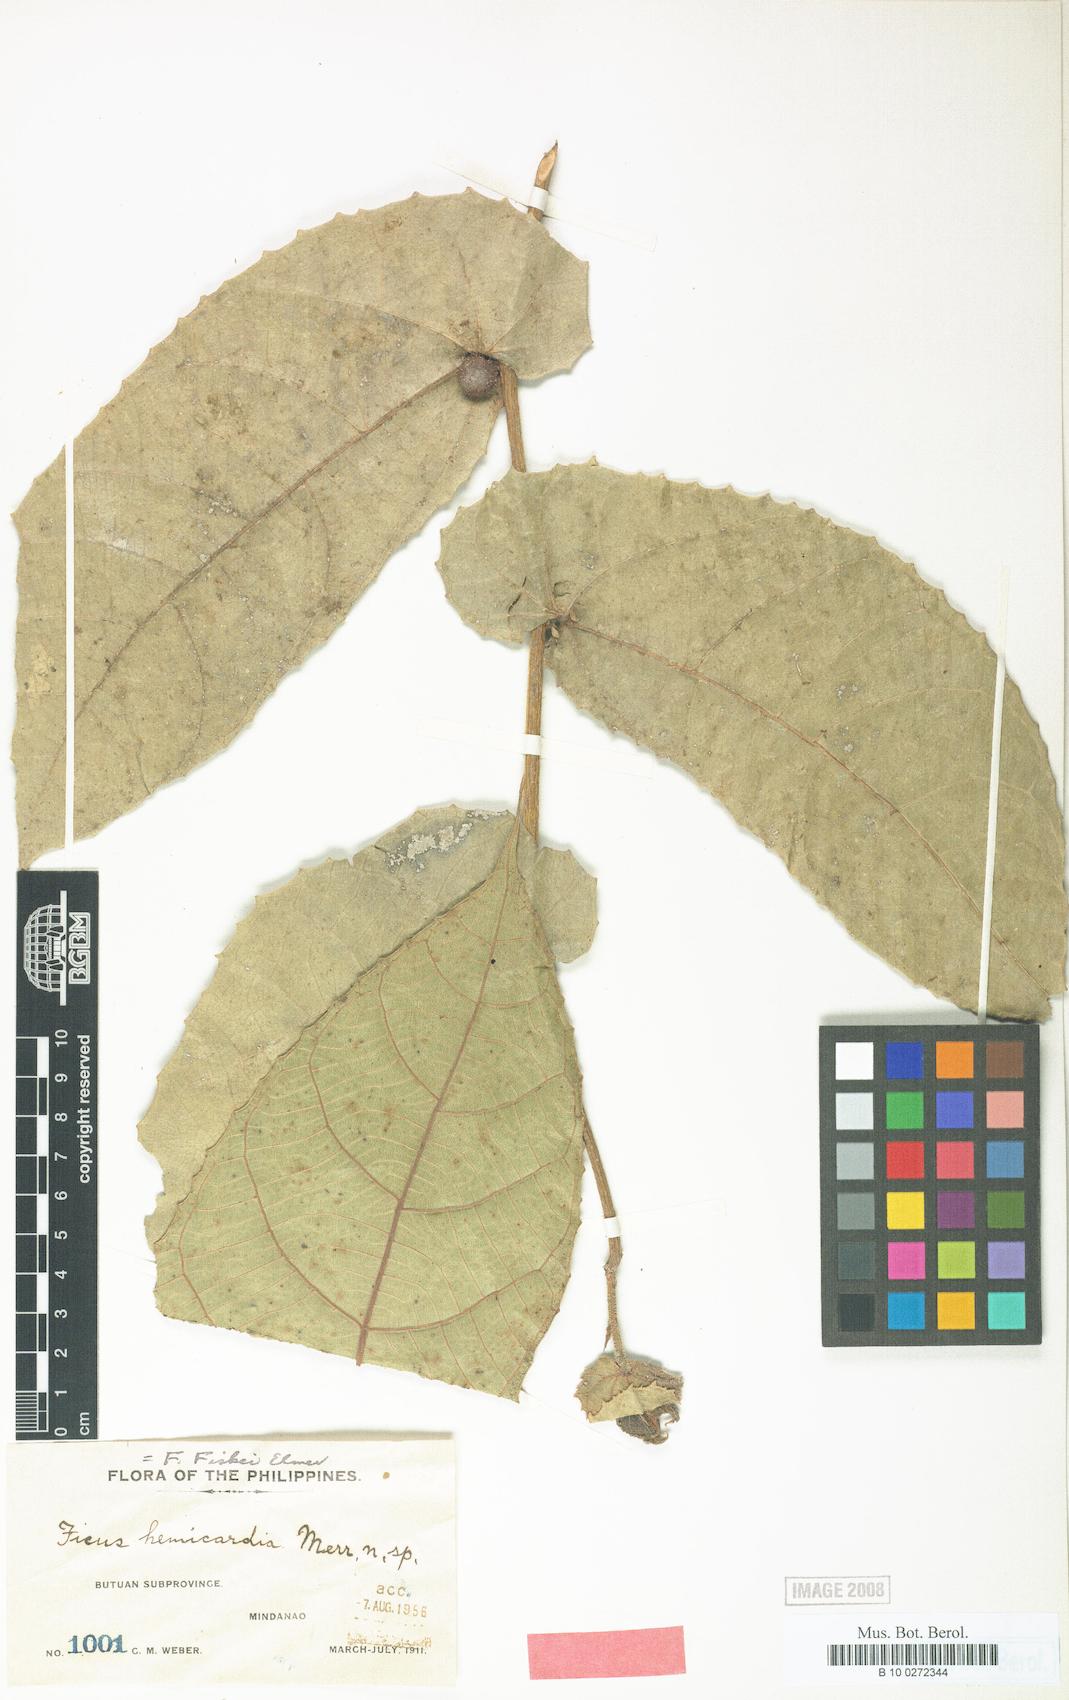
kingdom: Plantae
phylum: Tracheophyta
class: Magnoliopsida
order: Rosales
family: Moraceae
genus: Ficus
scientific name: Ficus fiskei
